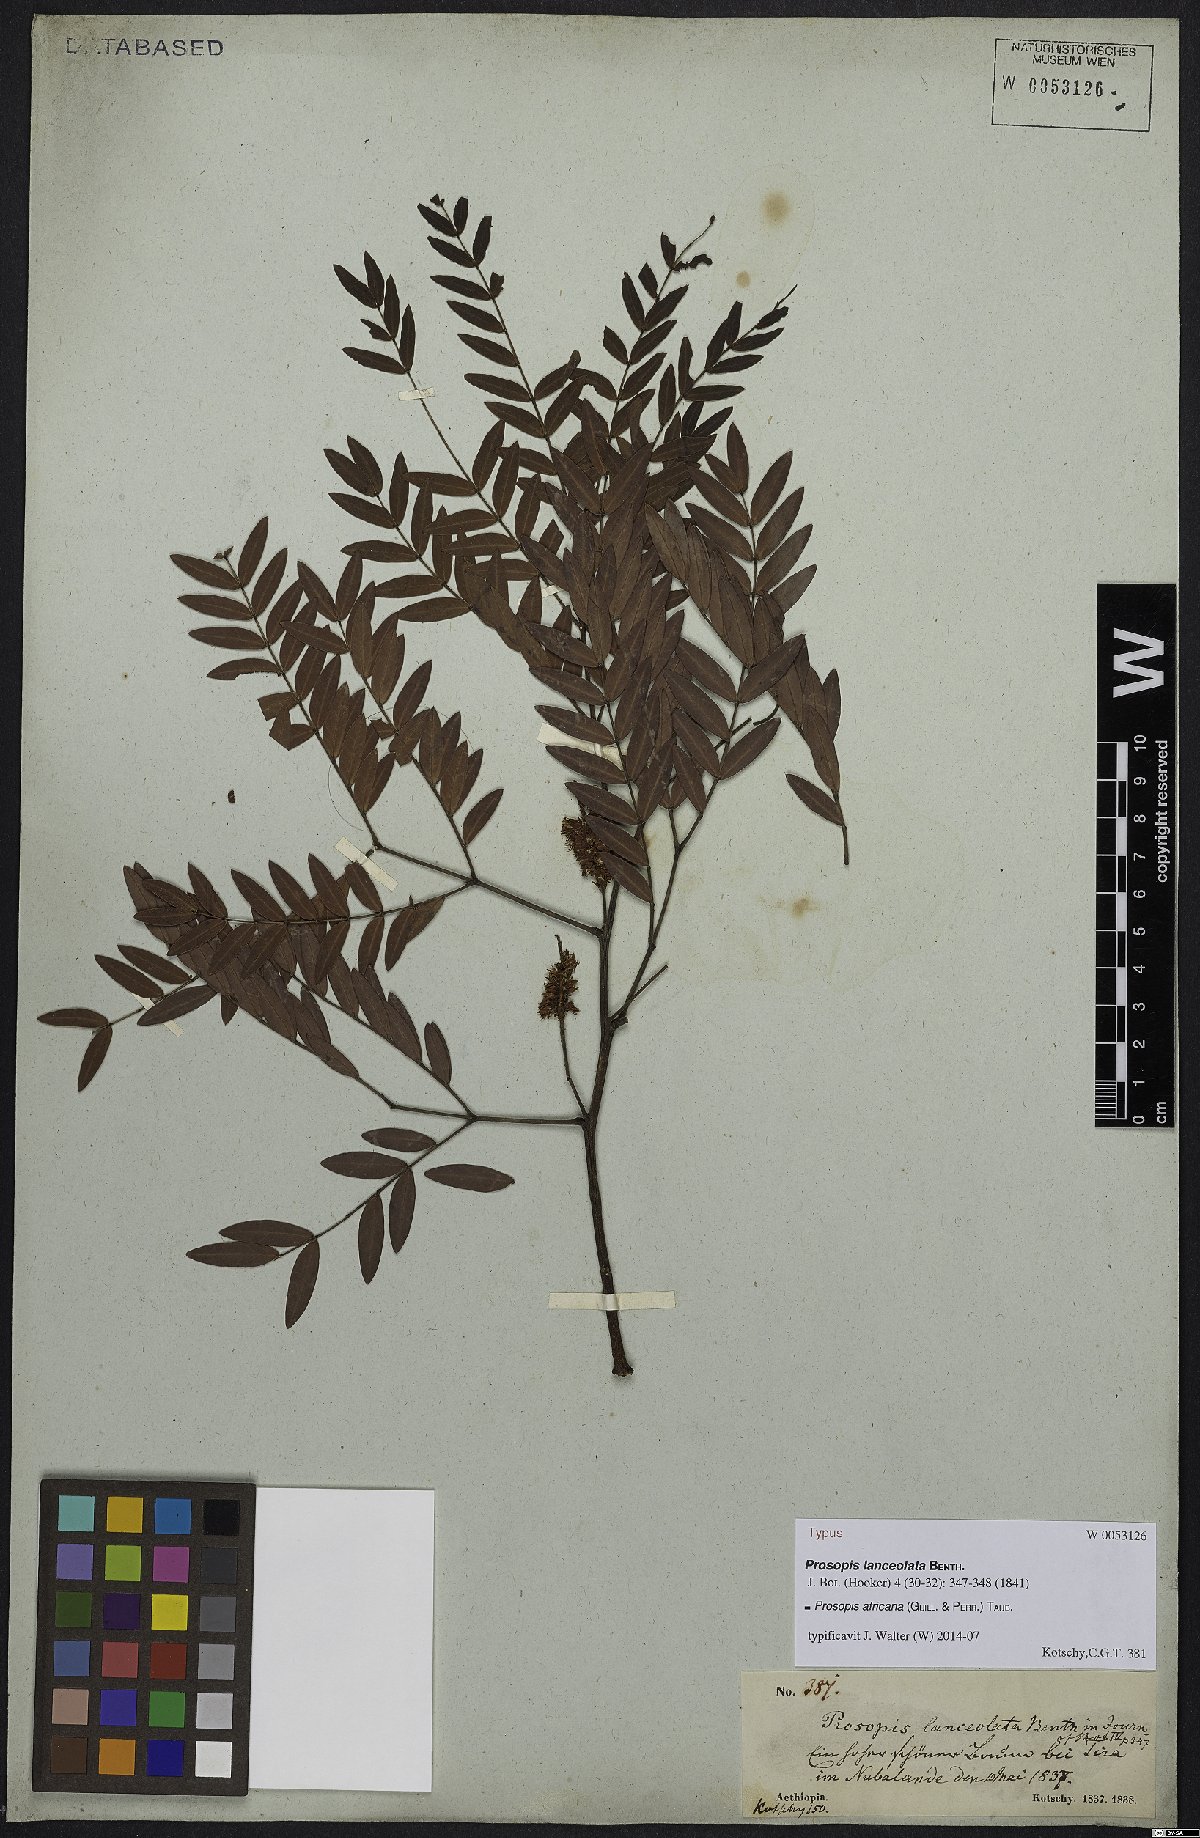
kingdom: Plantae
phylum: Tracheophyta
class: Magnoliopsida
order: Fabales
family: Fabaceae
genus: Prosopis
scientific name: Prosopis africana
